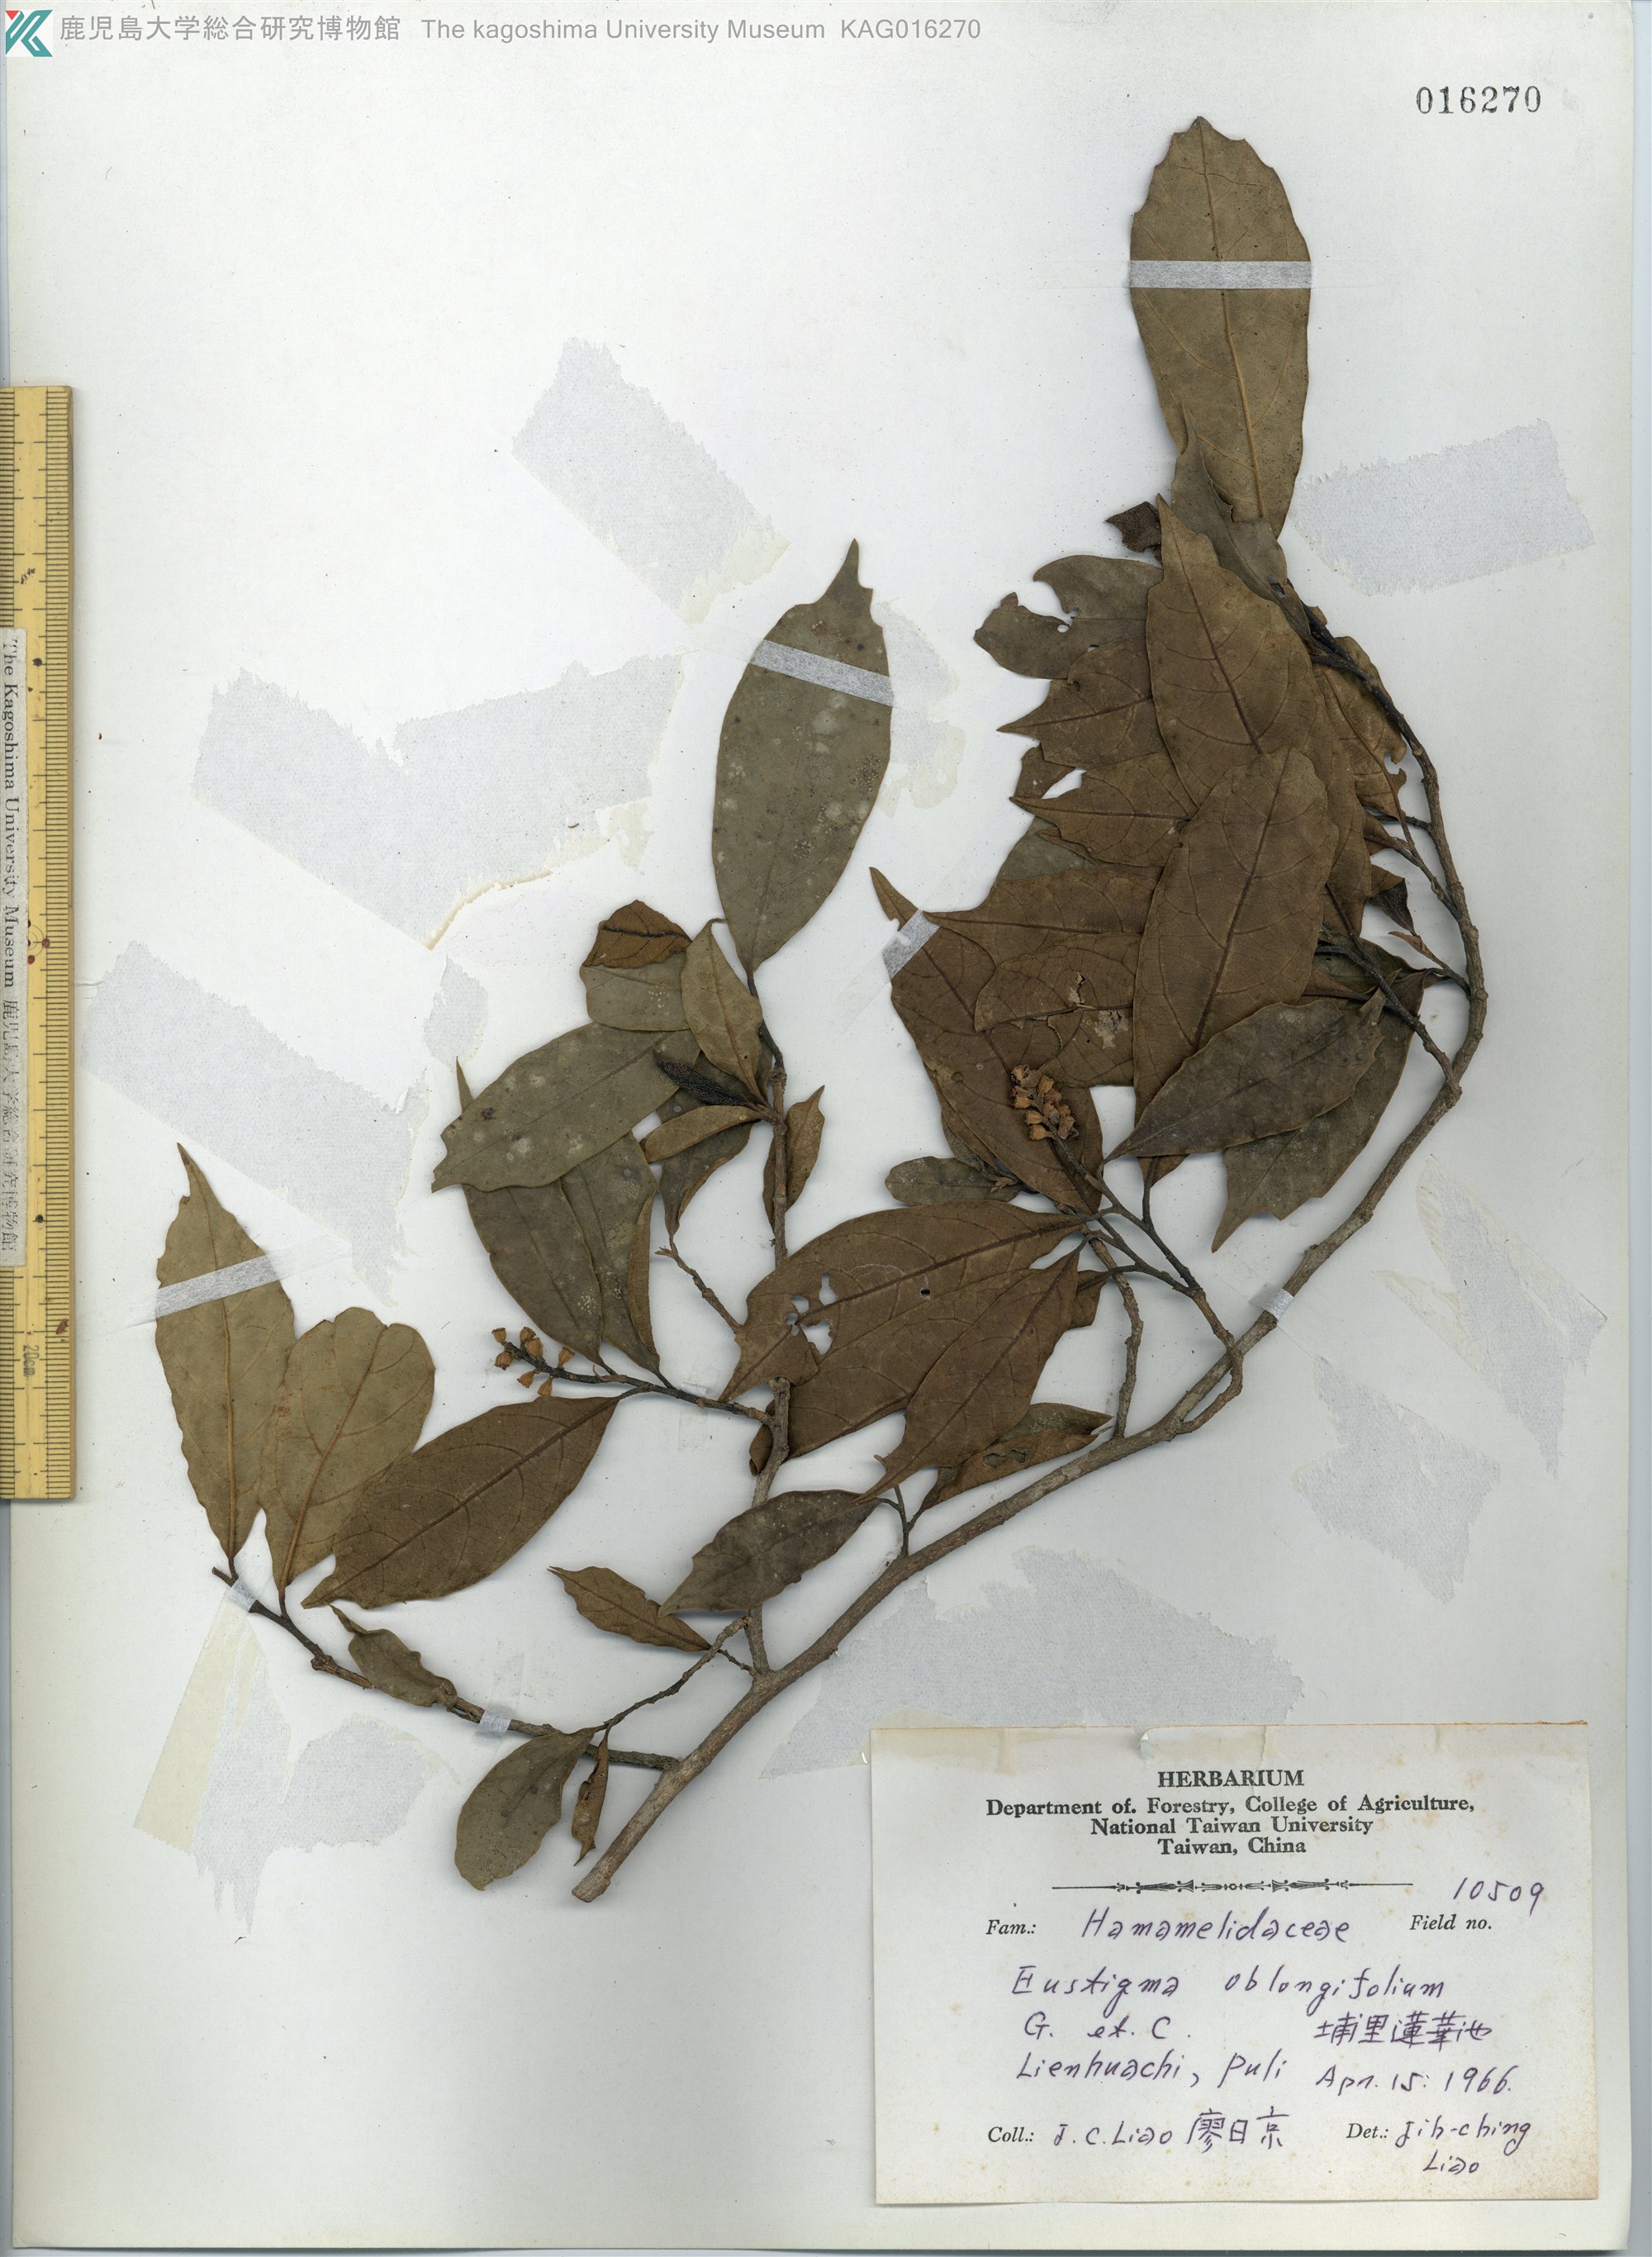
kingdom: Plantae
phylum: Tracheophyta
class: Magnoliopsida
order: Saxifragales
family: Hamamelidaceae
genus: Eustigma
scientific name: Eustigma oblongifolium
